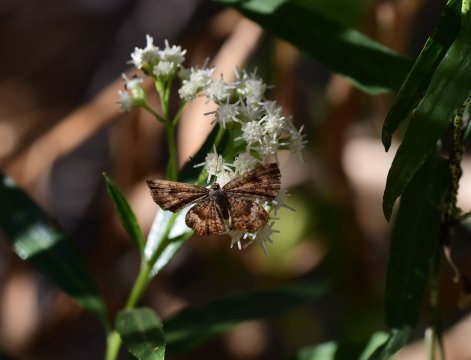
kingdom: Animalia
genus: Calephelis
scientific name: Calephelis nemesis
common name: Fatal Metalmark
